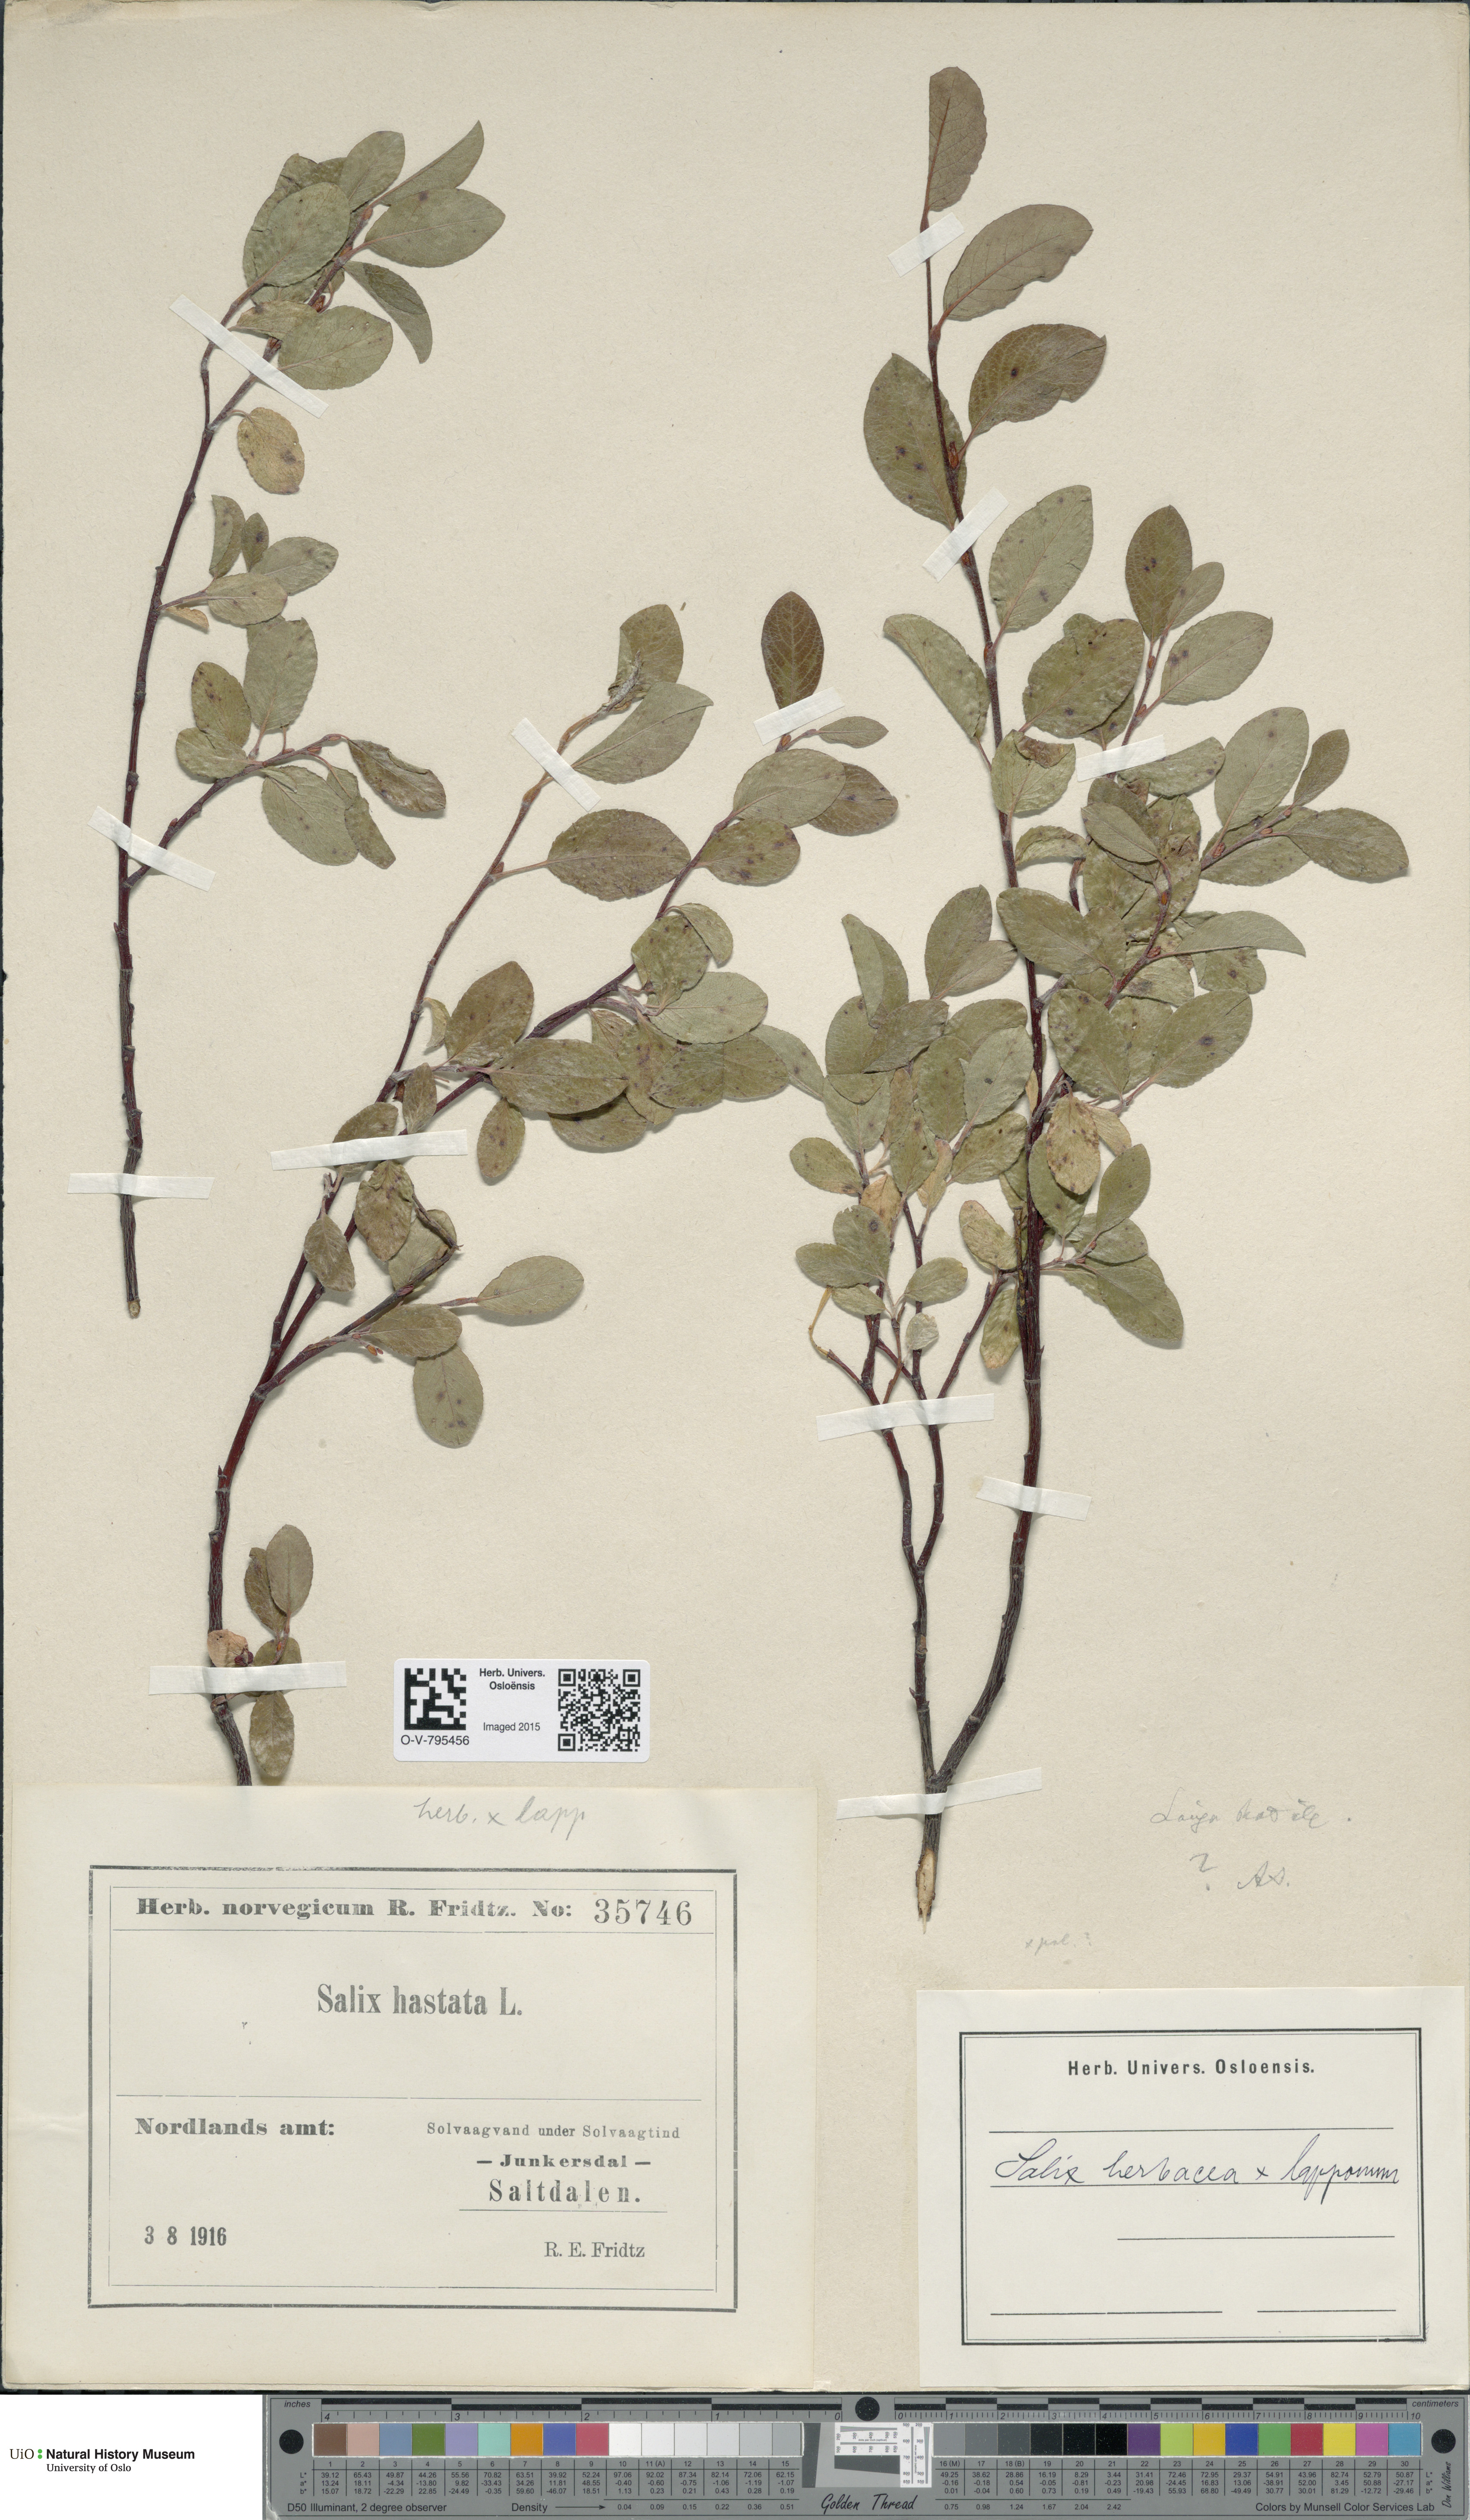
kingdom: Plantae
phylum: Tracheophyta
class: Magnoliopsida
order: Malpighiales
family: Salicaceae
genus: Salix
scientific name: Salix
